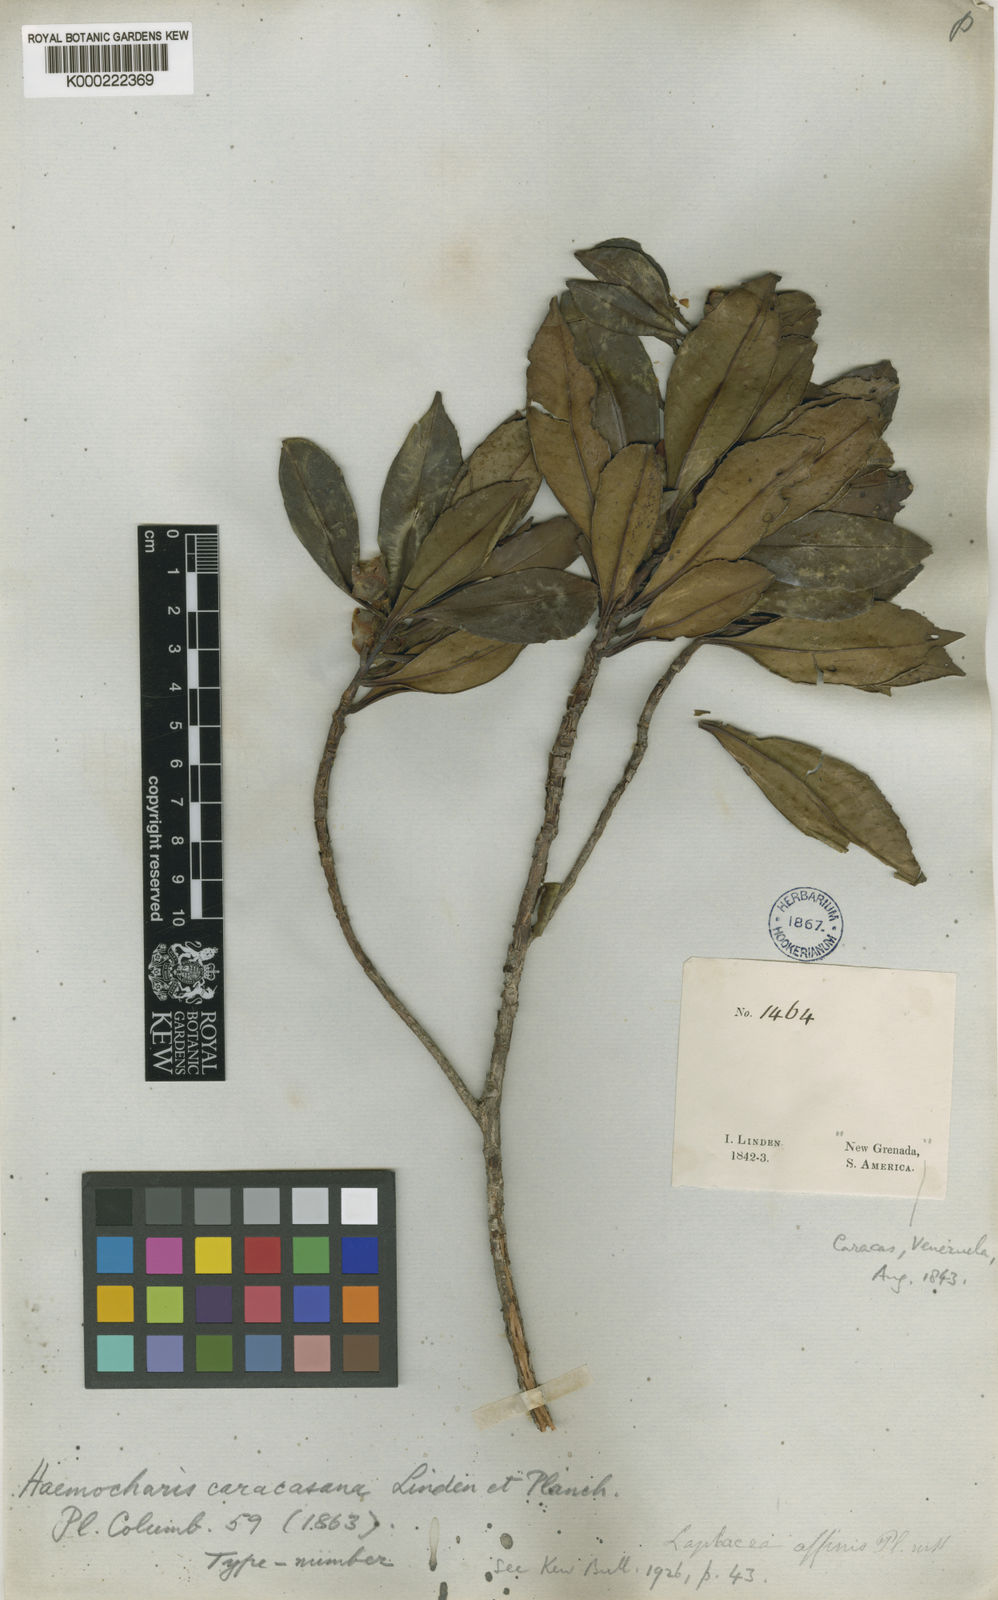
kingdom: Plantae
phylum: Tracheophyta
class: Magnoliopsida
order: Ericales
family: Theaceae
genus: Gordonia
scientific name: Gordonia
